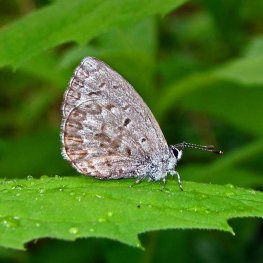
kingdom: Animalia
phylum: Arthropoda
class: Insecta
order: Lepidoptera
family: Lycaenidae
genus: Celastrina
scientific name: Celastrina lucia
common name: Northern Spring Azure
